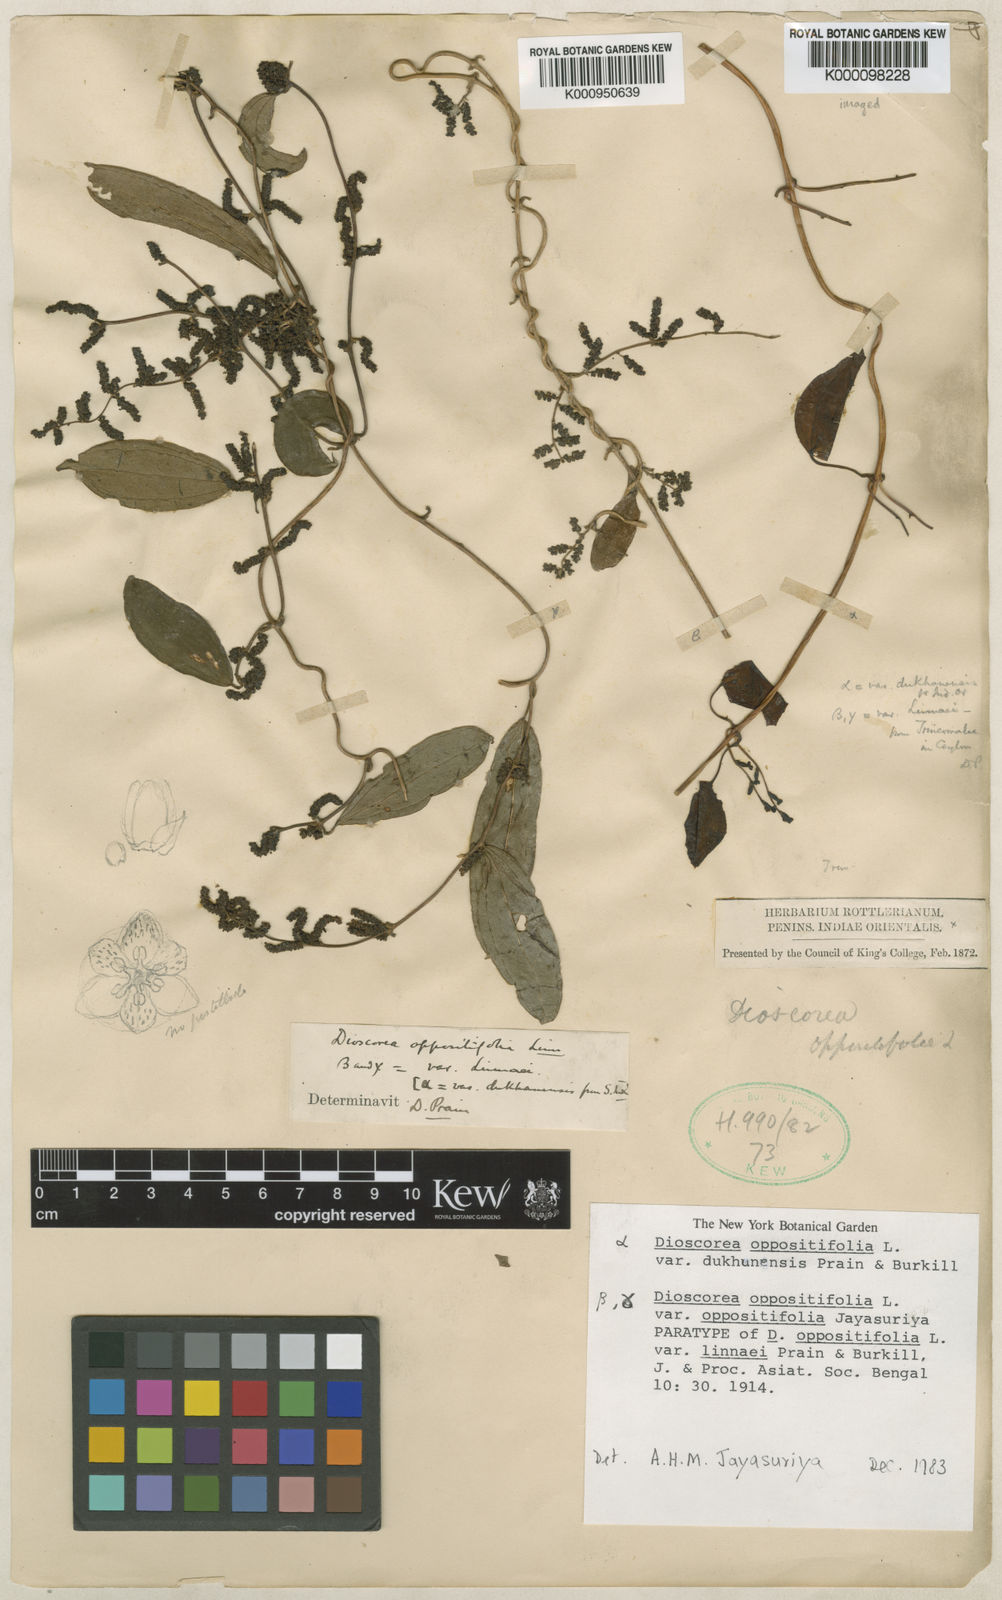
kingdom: Plantae
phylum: Tracheophyta
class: Liliopsida
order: Dioscoreales
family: Dioscoreaceae
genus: Dioscorea
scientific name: Dioscorea oppositifolia
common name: Chinese yam
